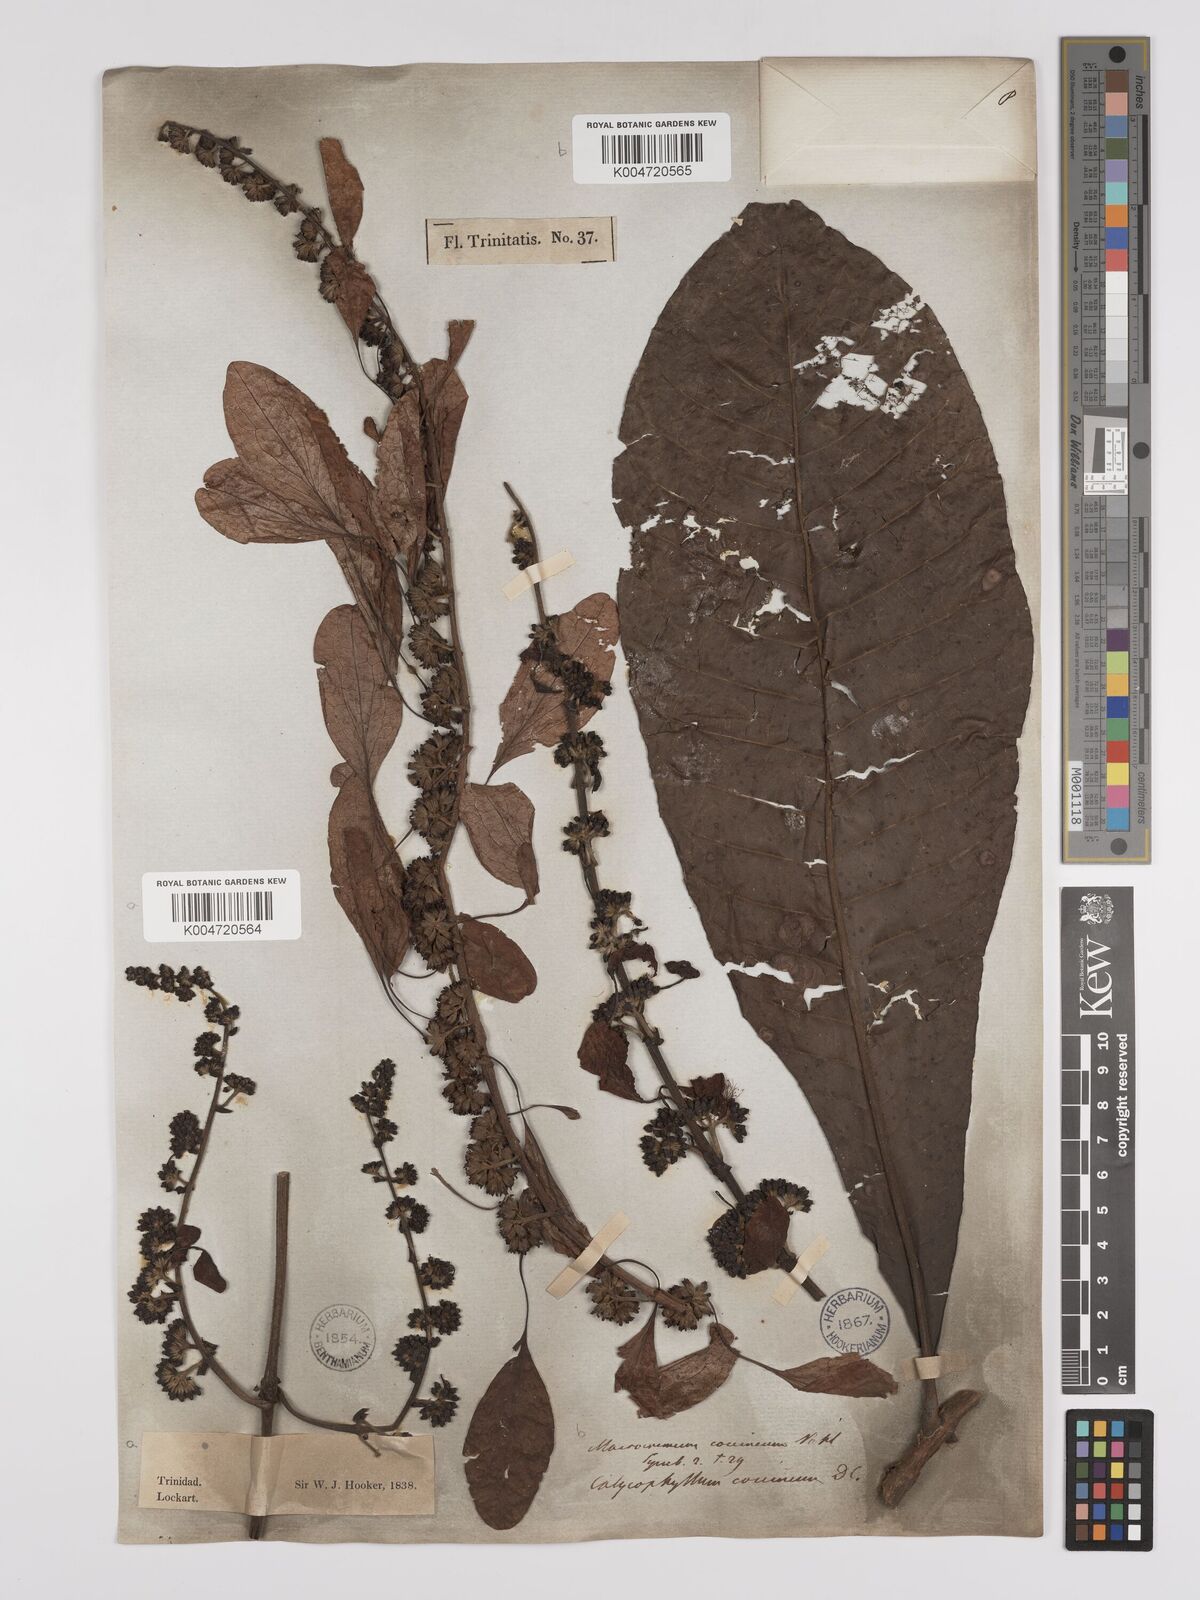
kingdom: Plantae
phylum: Tracheophyta
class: Magnoliopsida
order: Gentianales
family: Rubiaceae
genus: Warszewiczia
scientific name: Warszewiczia coccinea
